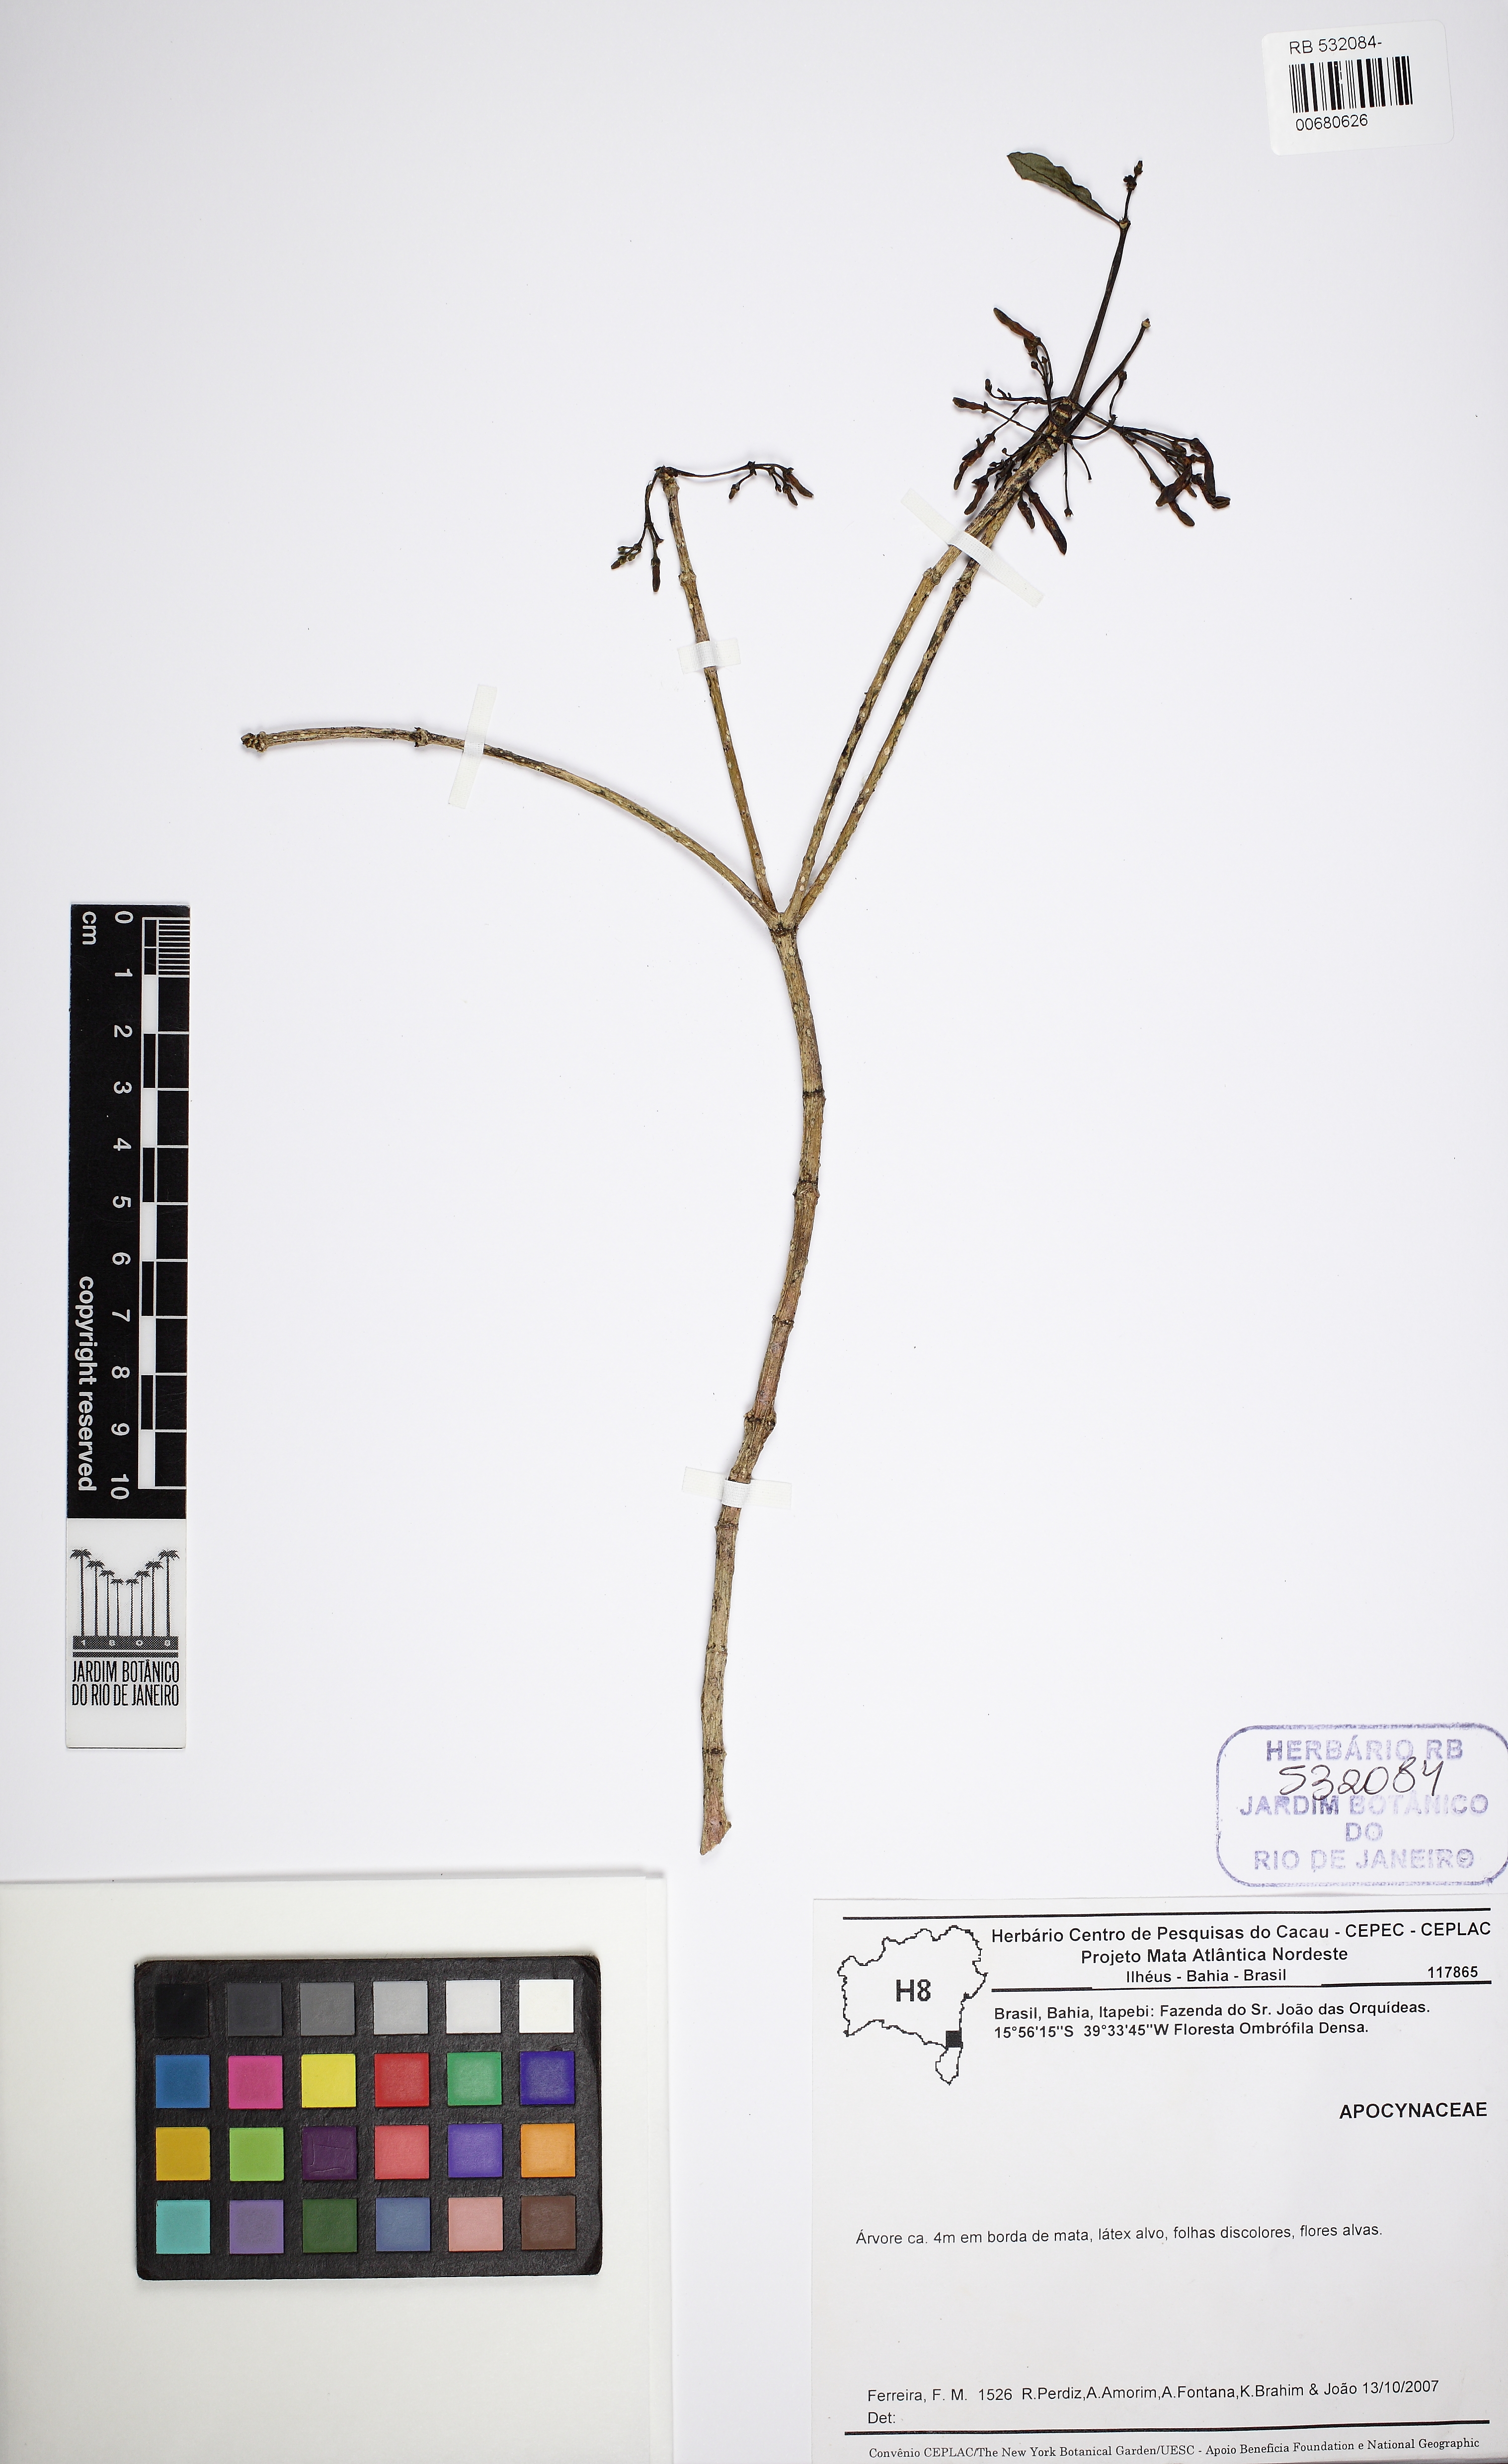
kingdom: Plantae
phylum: Tracheophyta
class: Magnoliopsida
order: Gentianales
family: Apocynaceae
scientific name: Apocynaceae
